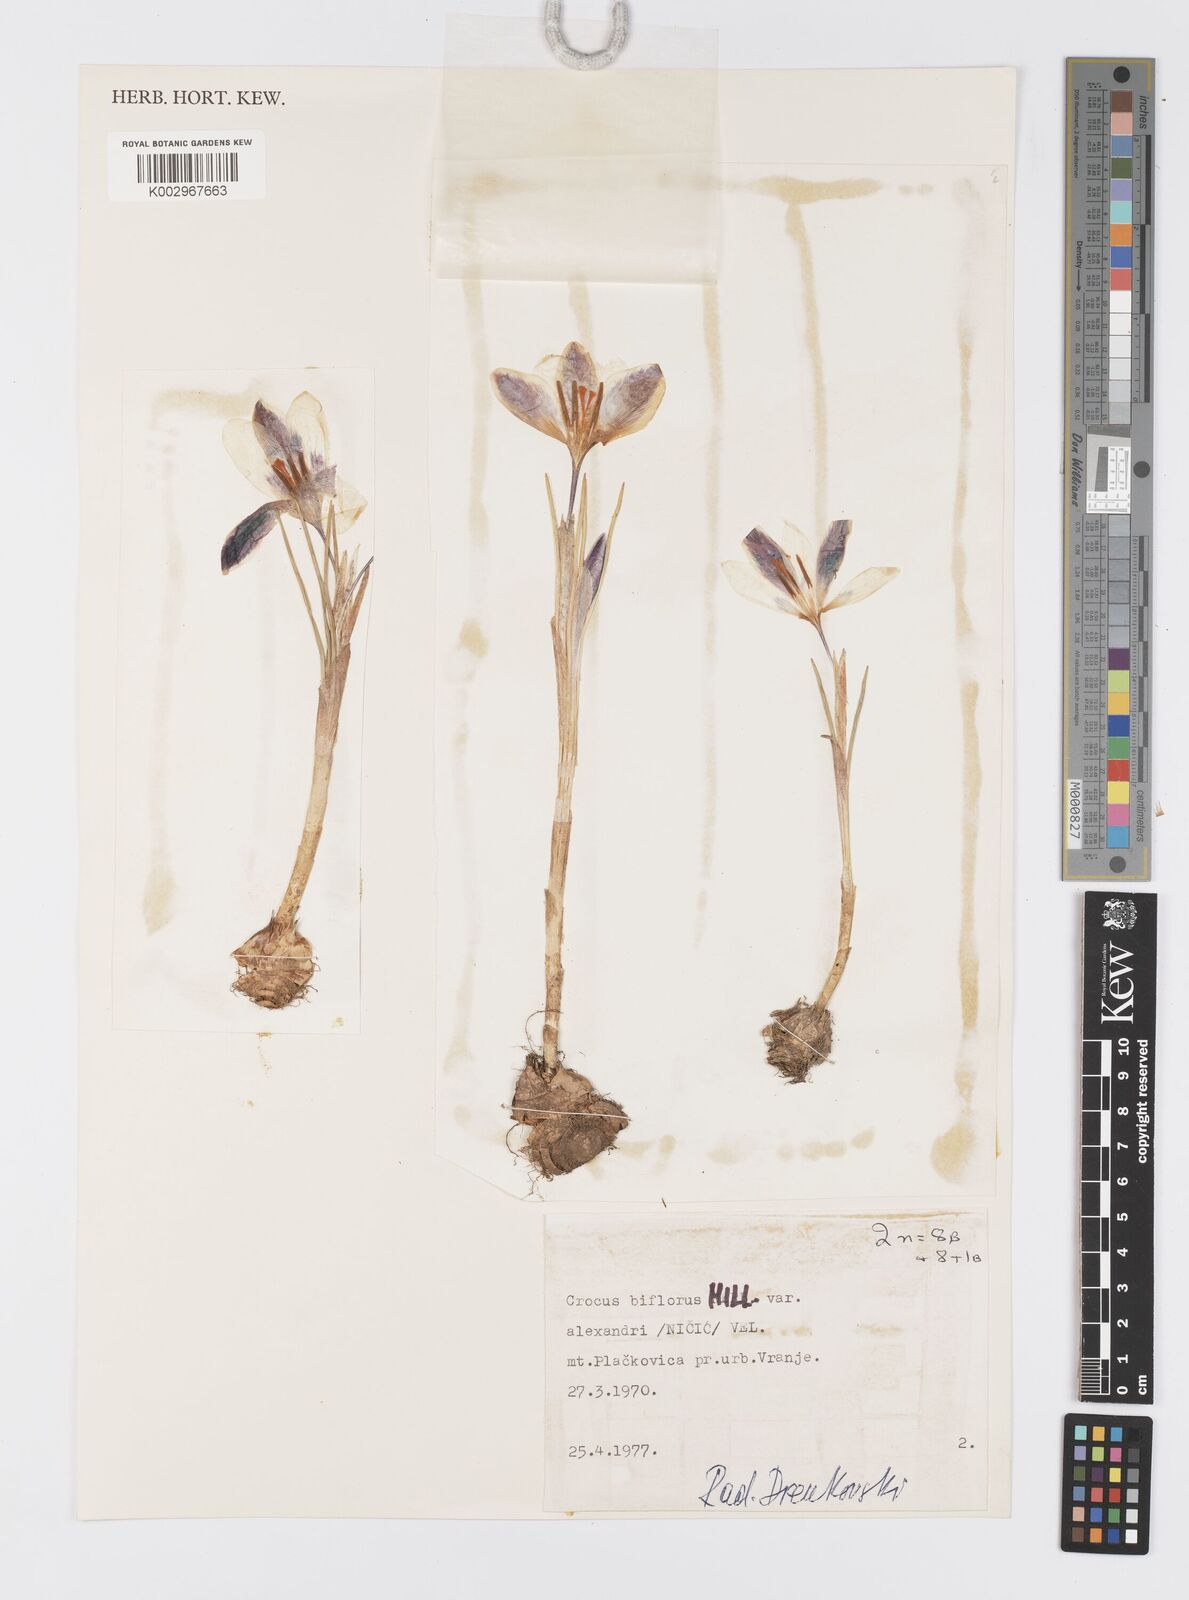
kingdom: Plantae
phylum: Tracheophyta
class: Liliopsida
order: Asparagales
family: Iridaceae
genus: Crocus
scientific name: Crocus alexandri
